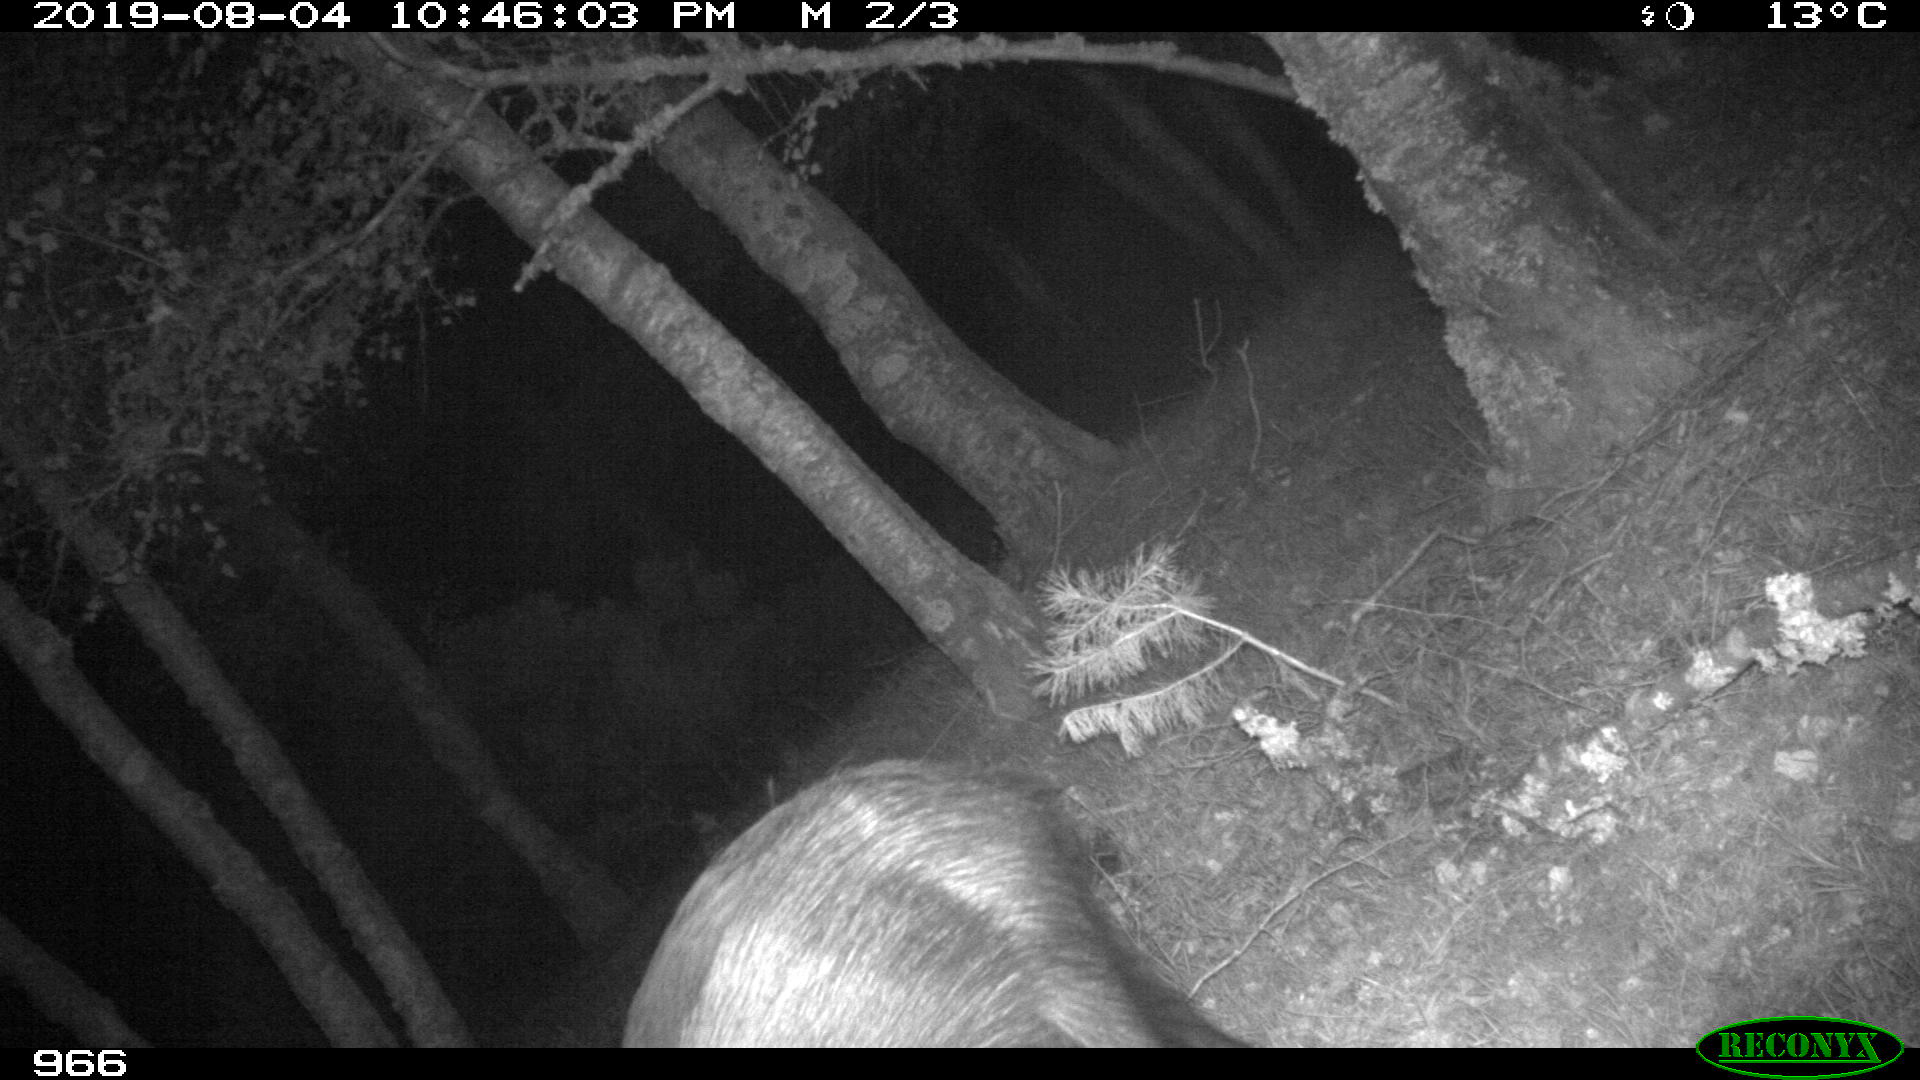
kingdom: Animalia
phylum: Chordata
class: Mammalia
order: Artiodactyla
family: Suidae
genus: Sus
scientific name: Sus scrofa
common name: Wild boar
